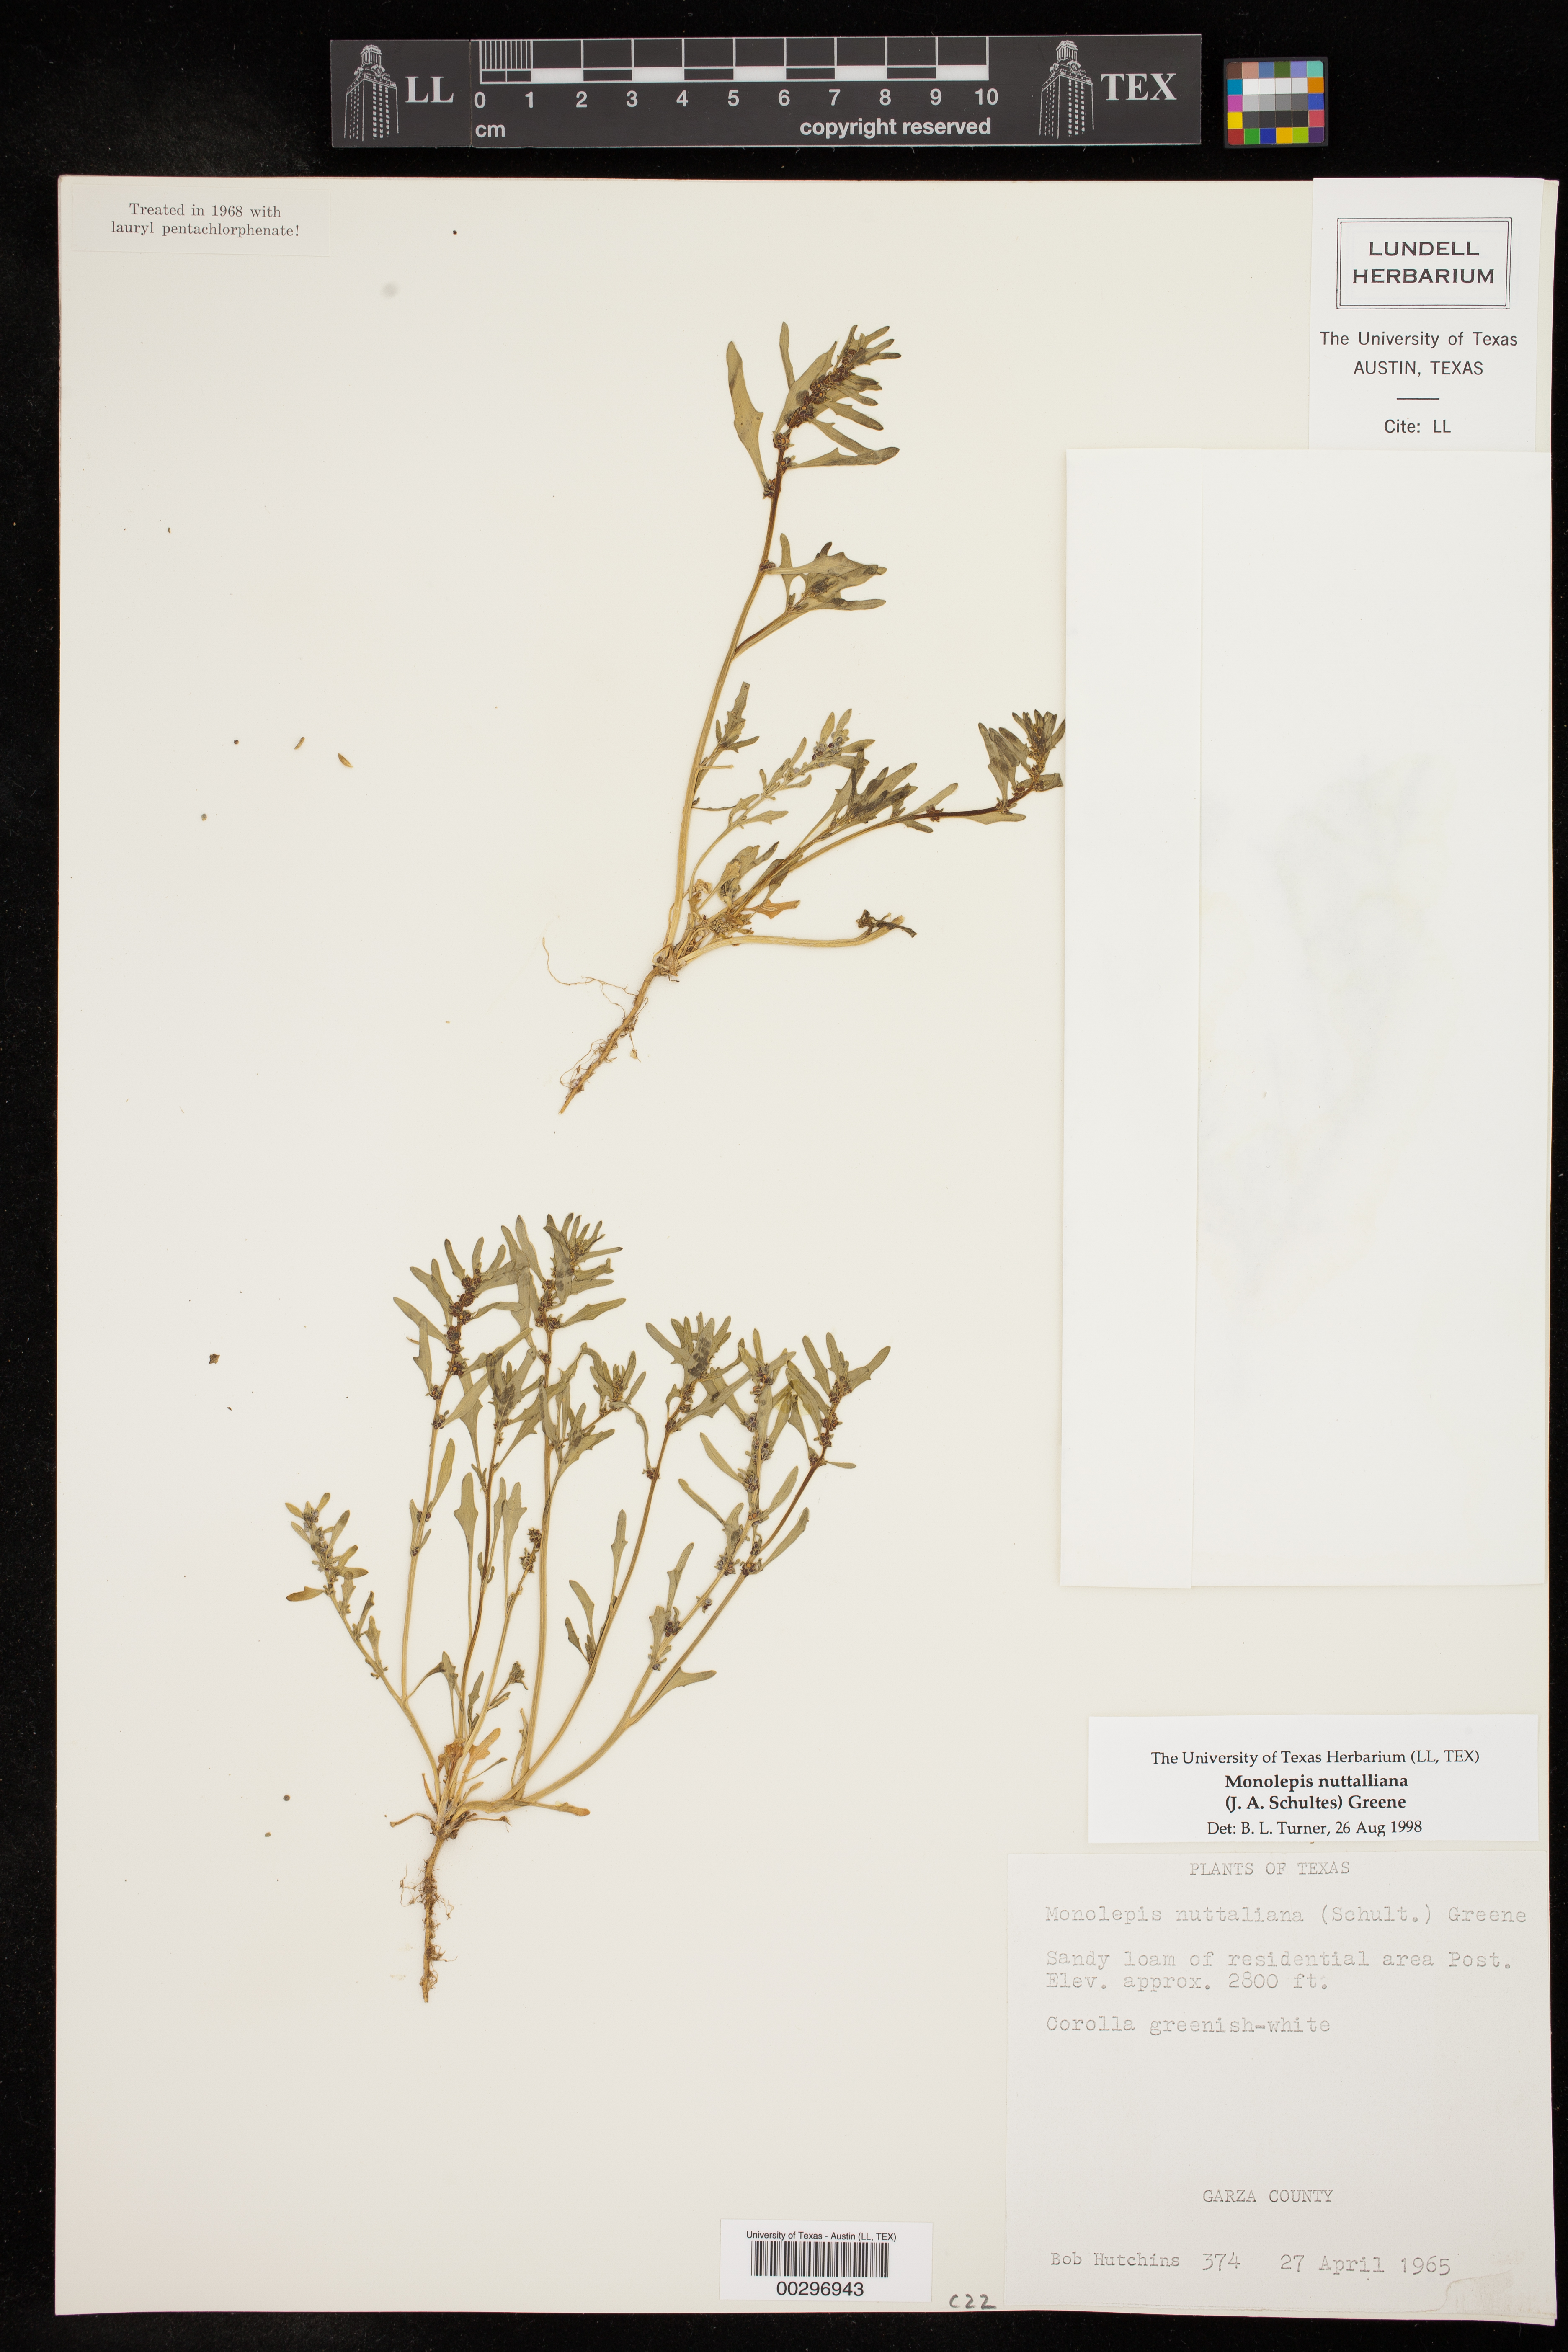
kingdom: Plantae
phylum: Tracheophyta
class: Magnoliopsida
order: Caryophyllales
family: Amaranthaceae
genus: Blitum
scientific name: Blitum nuttallianum
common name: Poverty-weed
